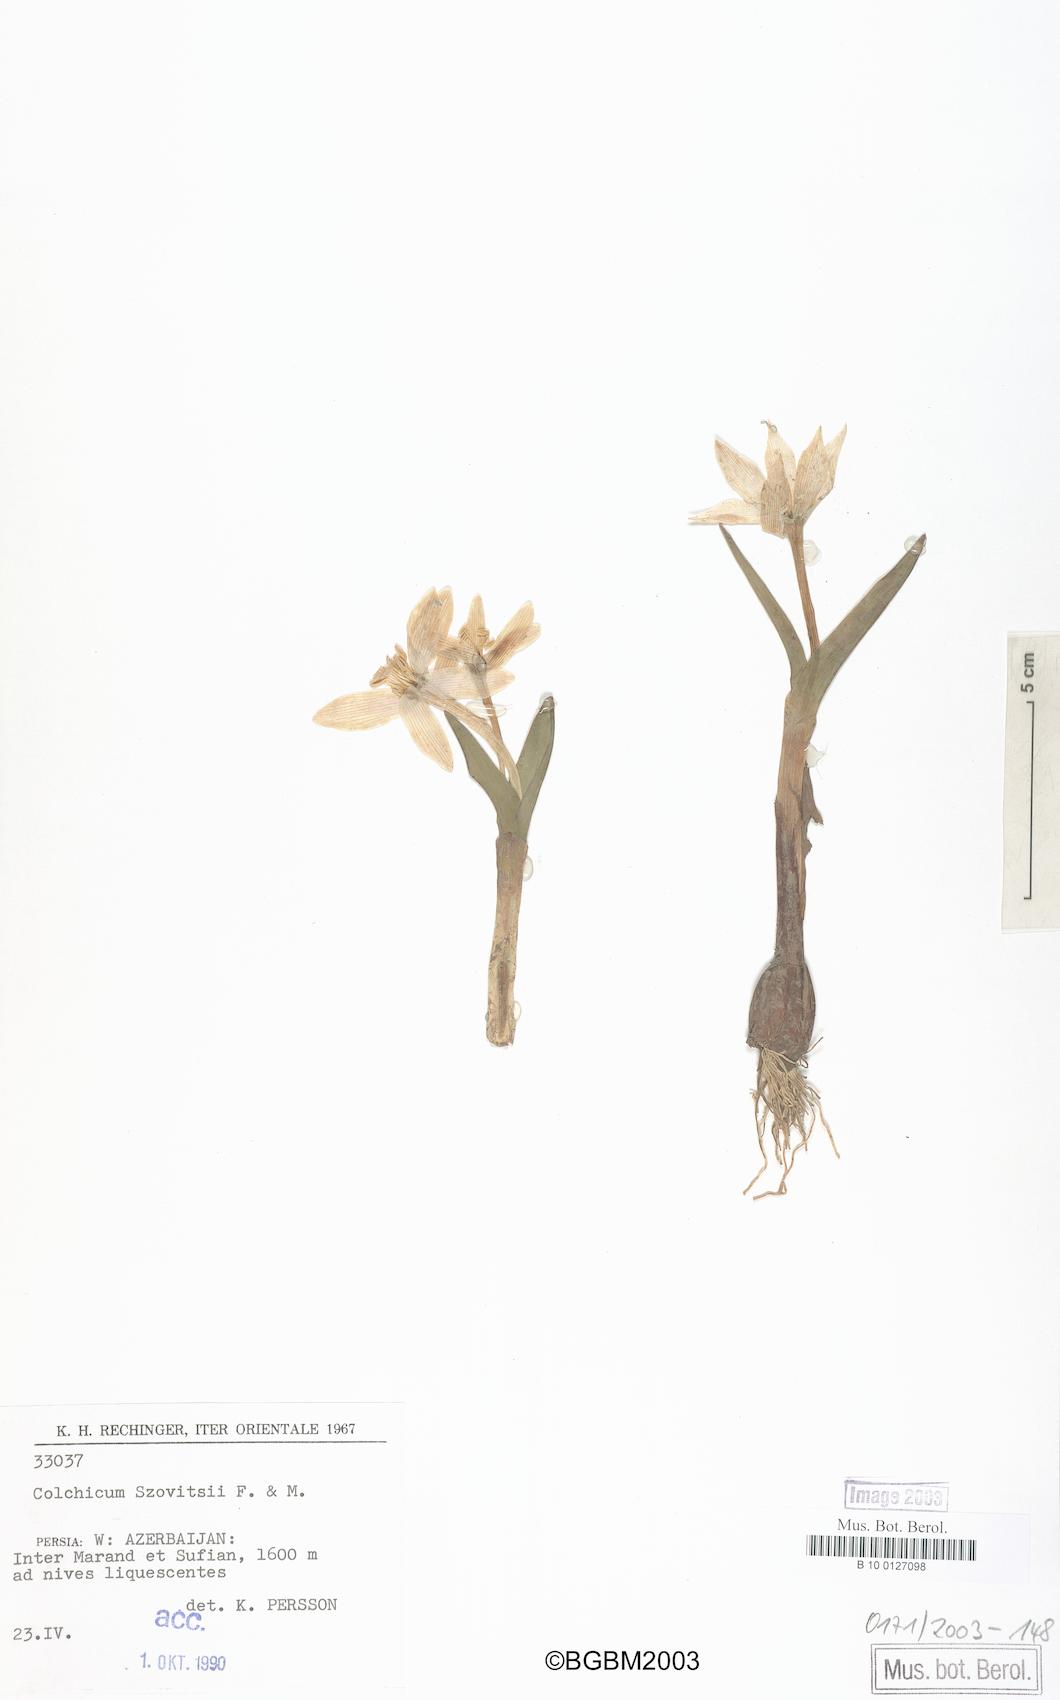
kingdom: Plantae
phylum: Tracheophyta
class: Liliopsida
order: Liliales
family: Colchicaceae
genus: Colchicum
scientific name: Colchicum szovitsii
